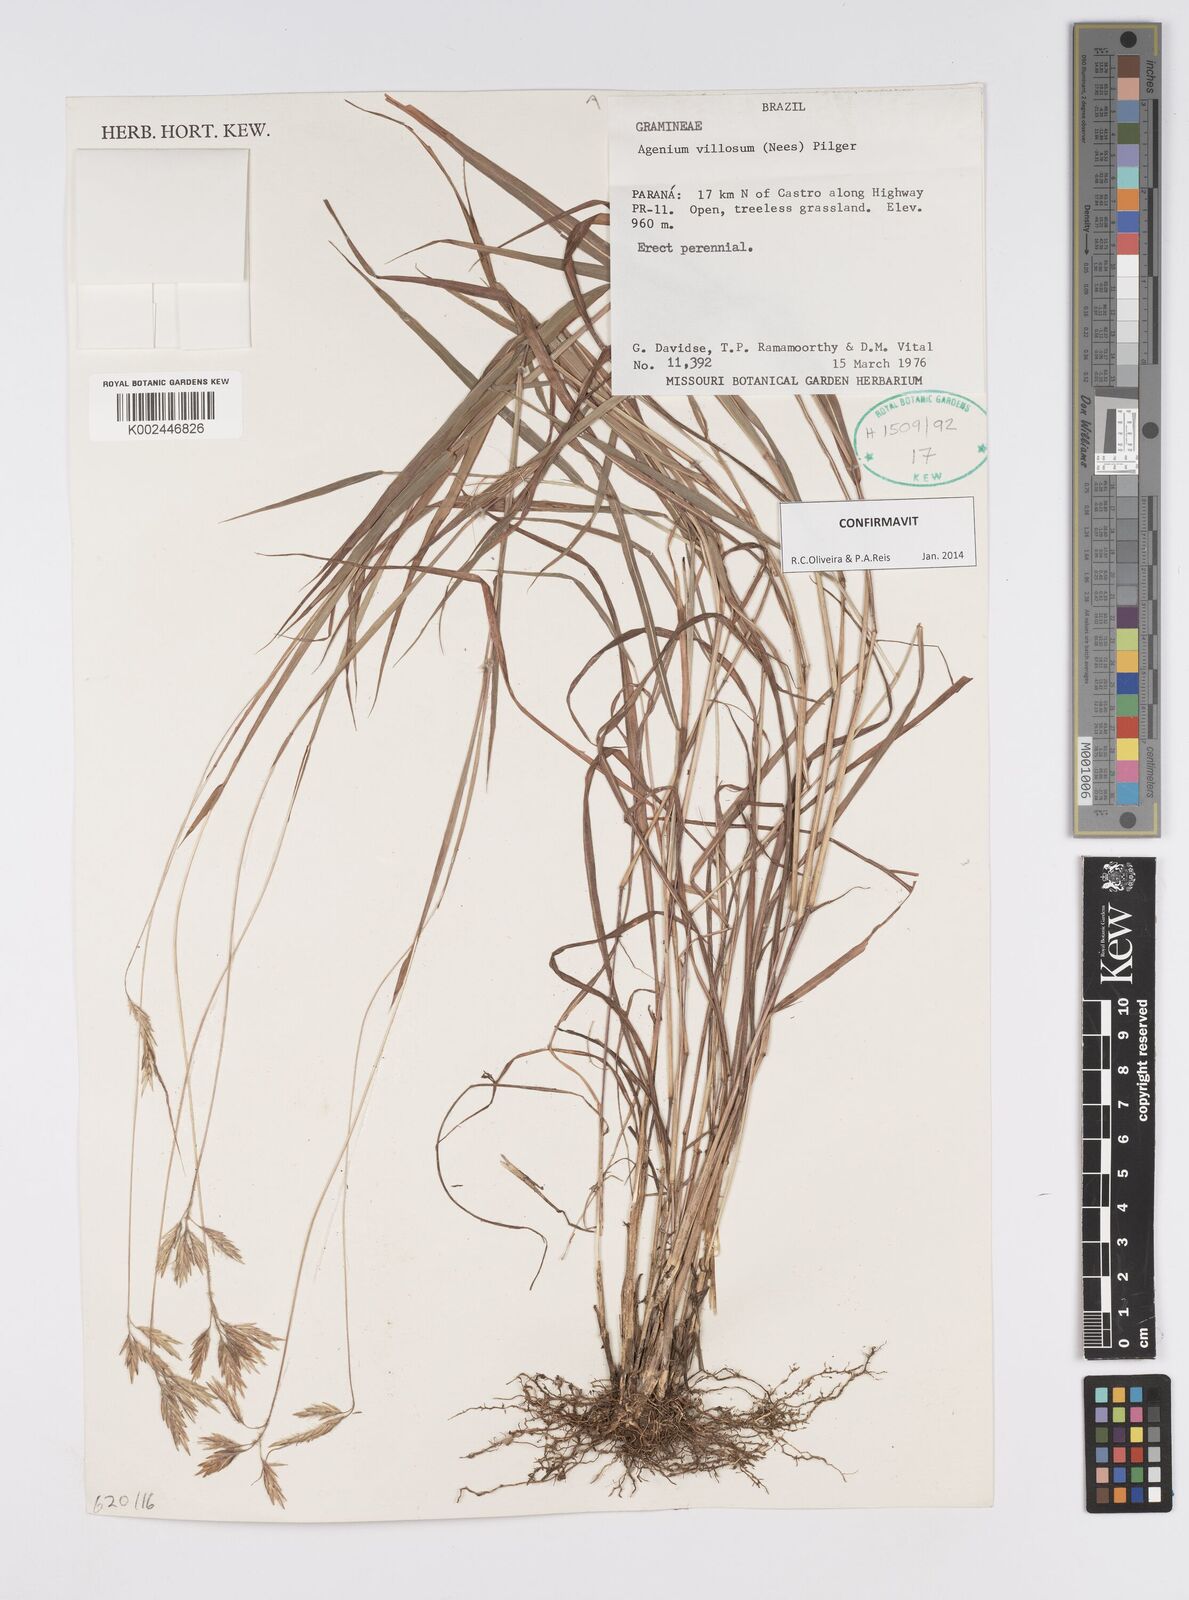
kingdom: Plantae
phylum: Tracheophyta
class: Liliopsida
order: Poales
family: Poaceae
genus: Agenium
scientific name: Agenium villosum
